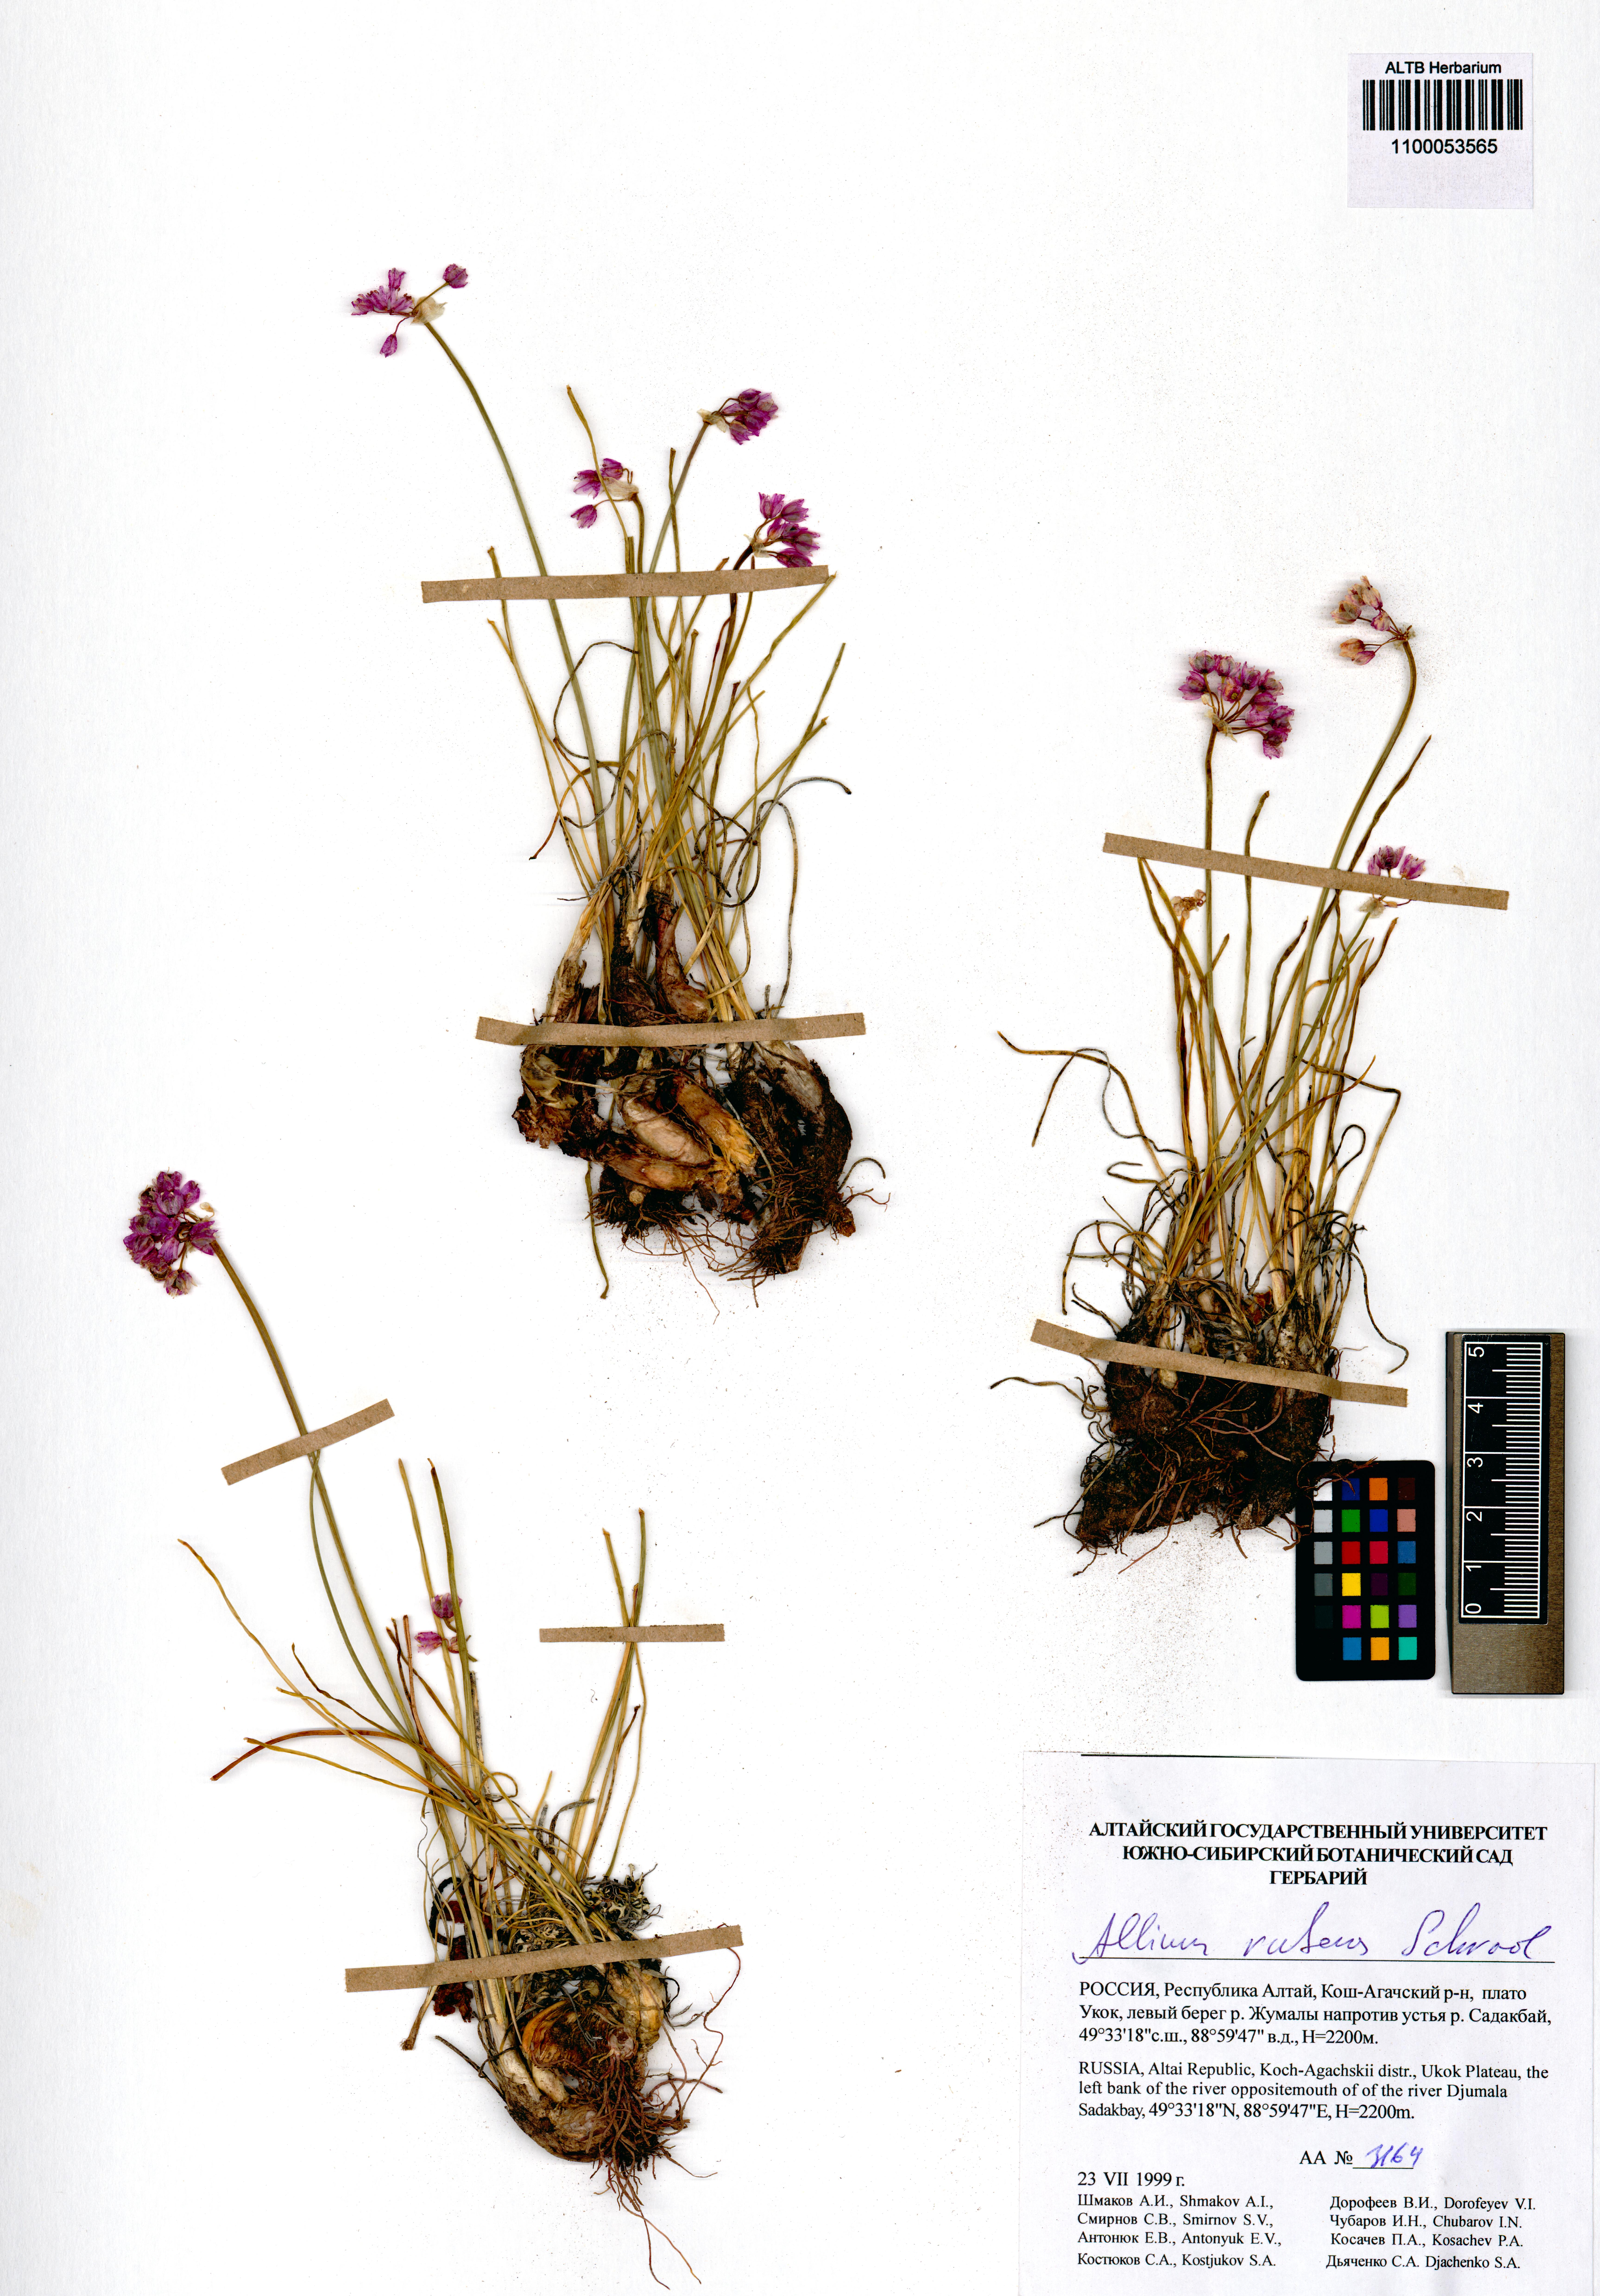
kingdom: Plantae
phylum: Tracheophyta
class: Liliopsida
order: Asparagales
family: Amaryllidaceae
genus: Allium
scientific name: Allium rubens
